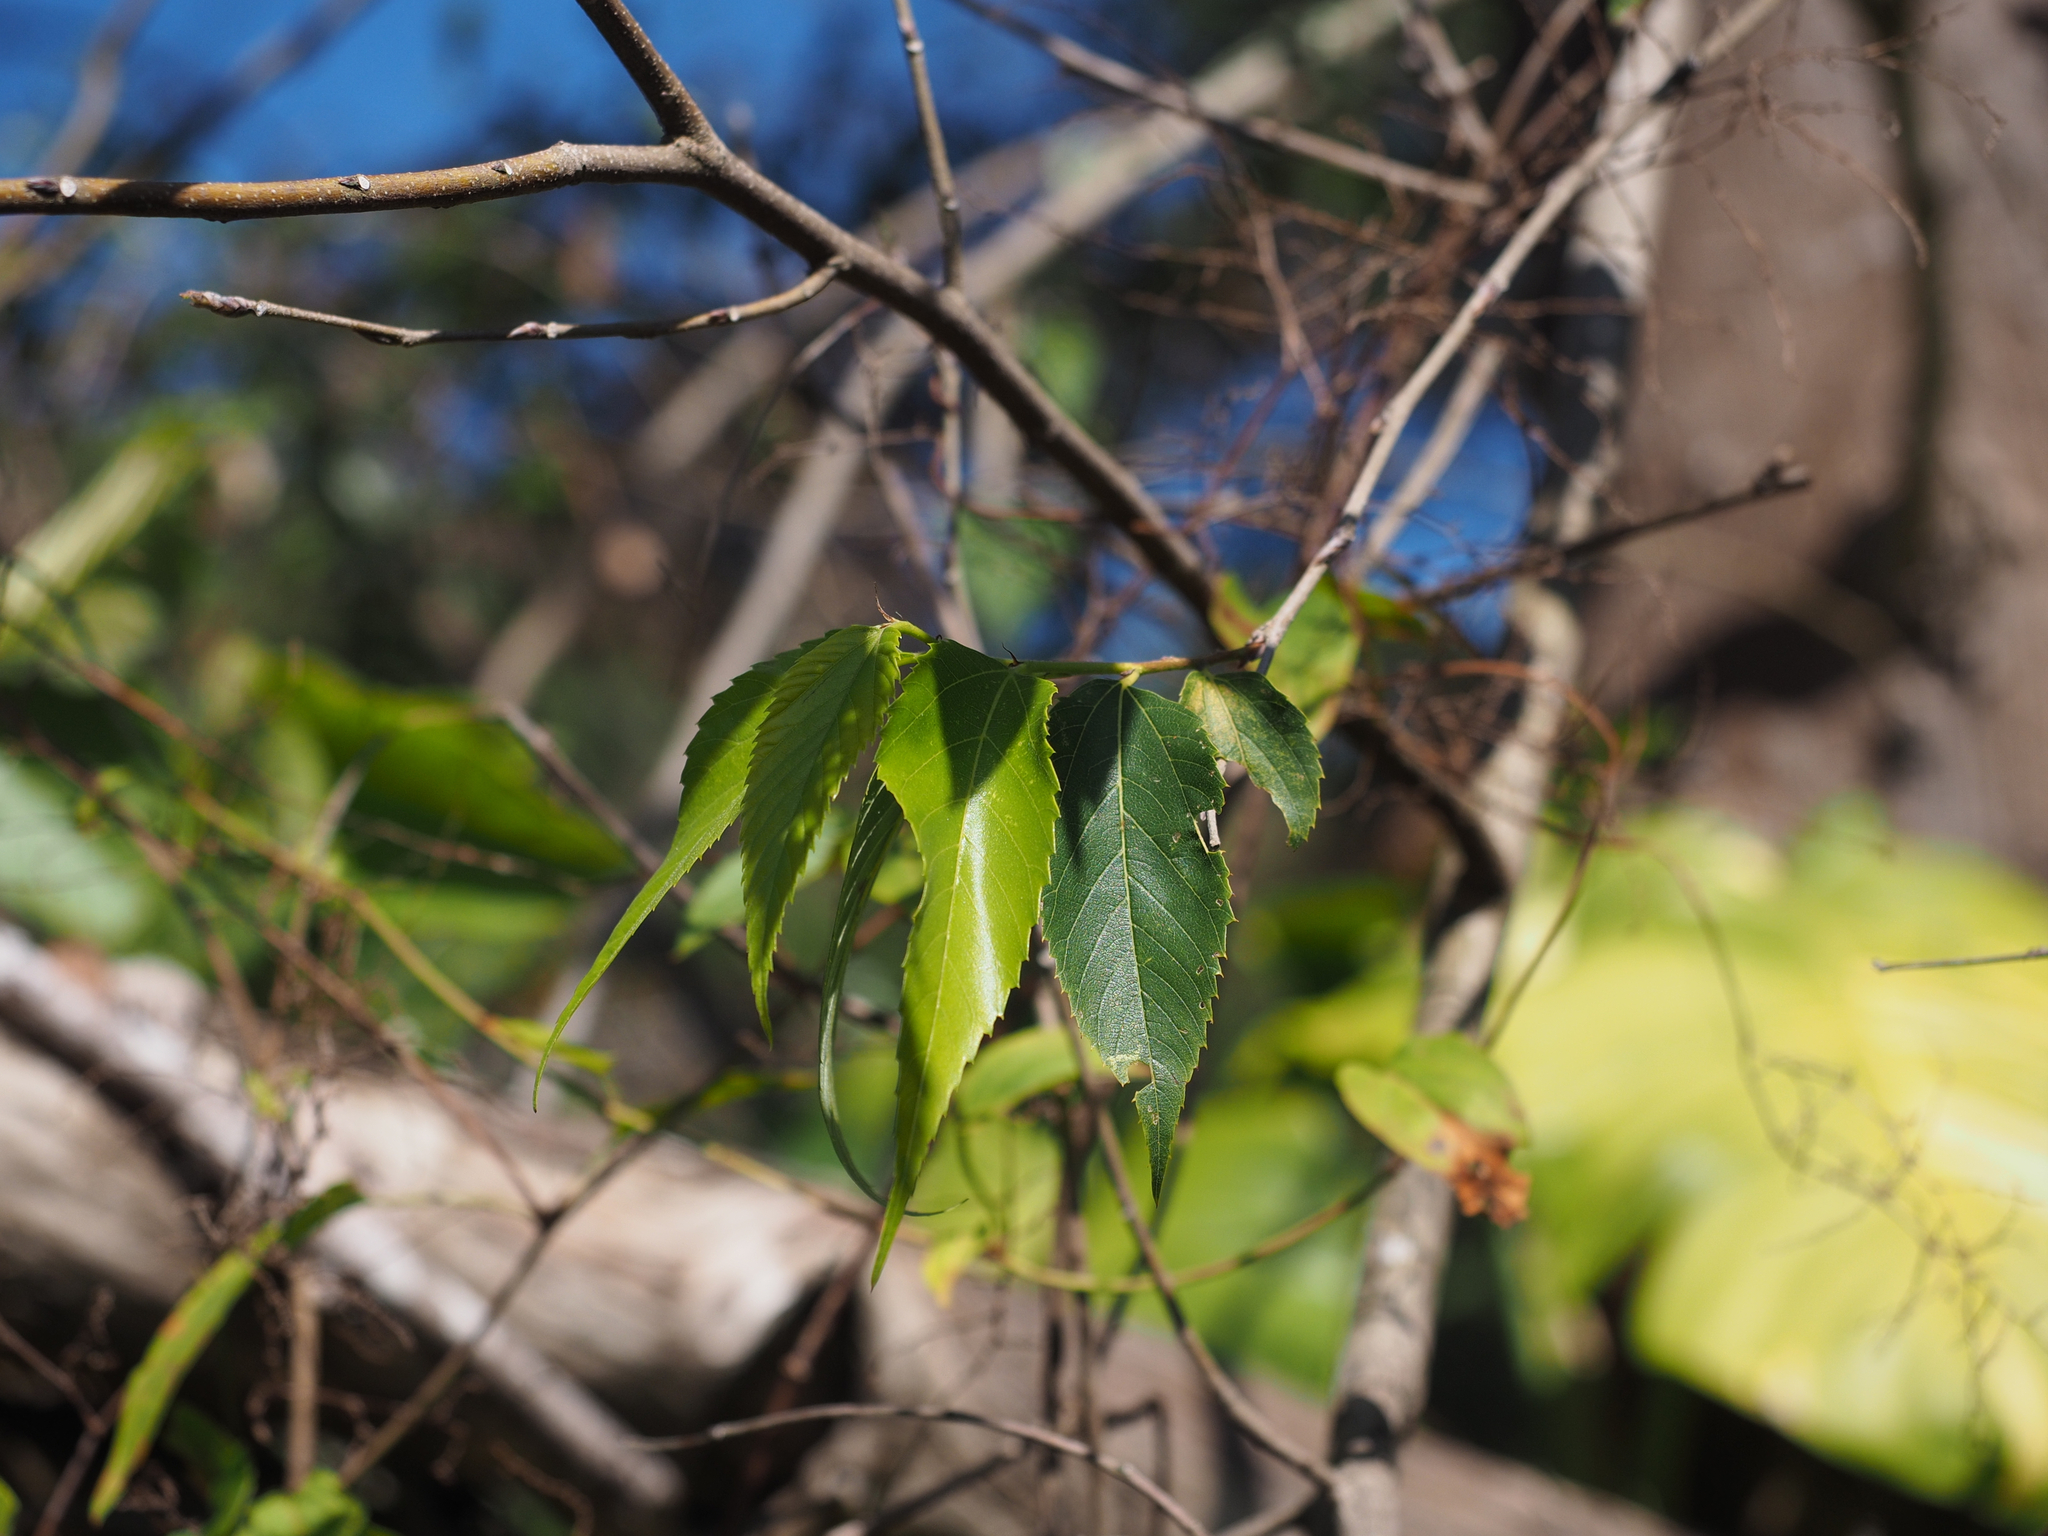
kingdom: Plantae
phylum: Tracheophyta
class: Magnoliopsida
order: Rosales
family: Cannabaceae
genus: Aphananthe
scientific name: Aphananthe aspera
